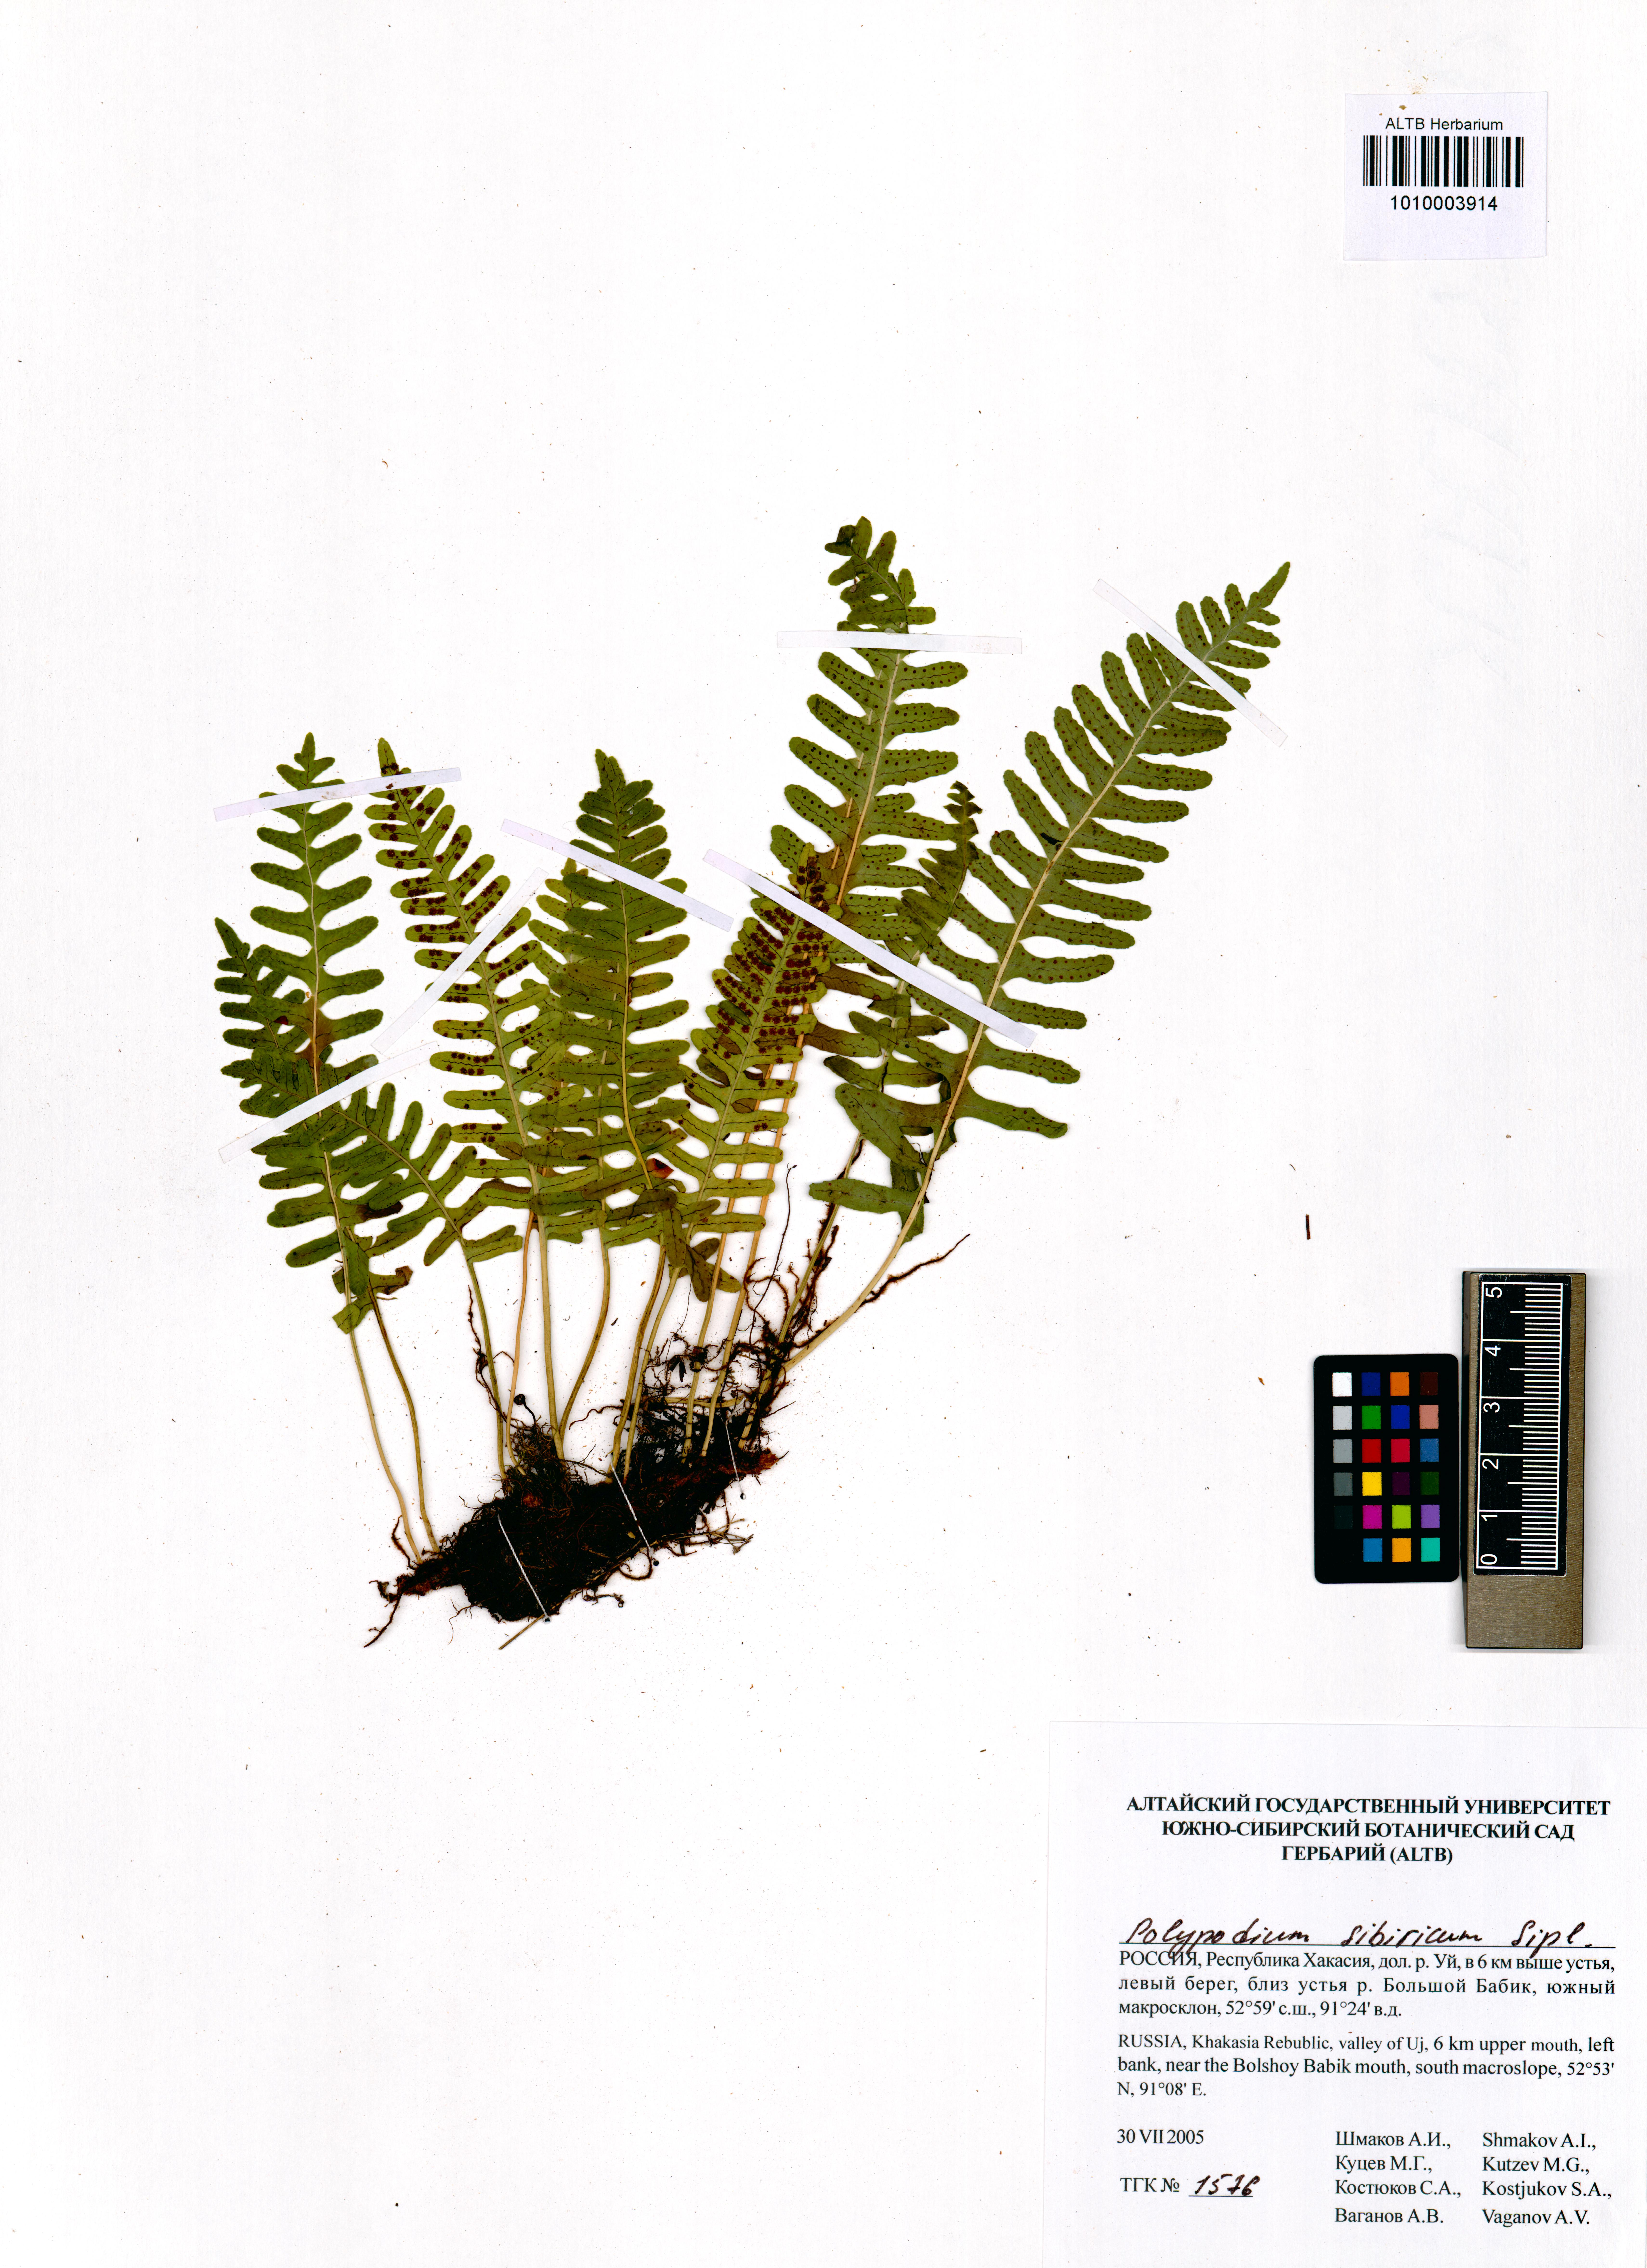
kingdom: Plantae
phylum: Tracheophyta
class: Polypodiopsida
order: Polypodiales
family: Polypodiaceae
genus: Polypodium
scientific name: Polypodium sibiricum
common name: Siberian polypody
